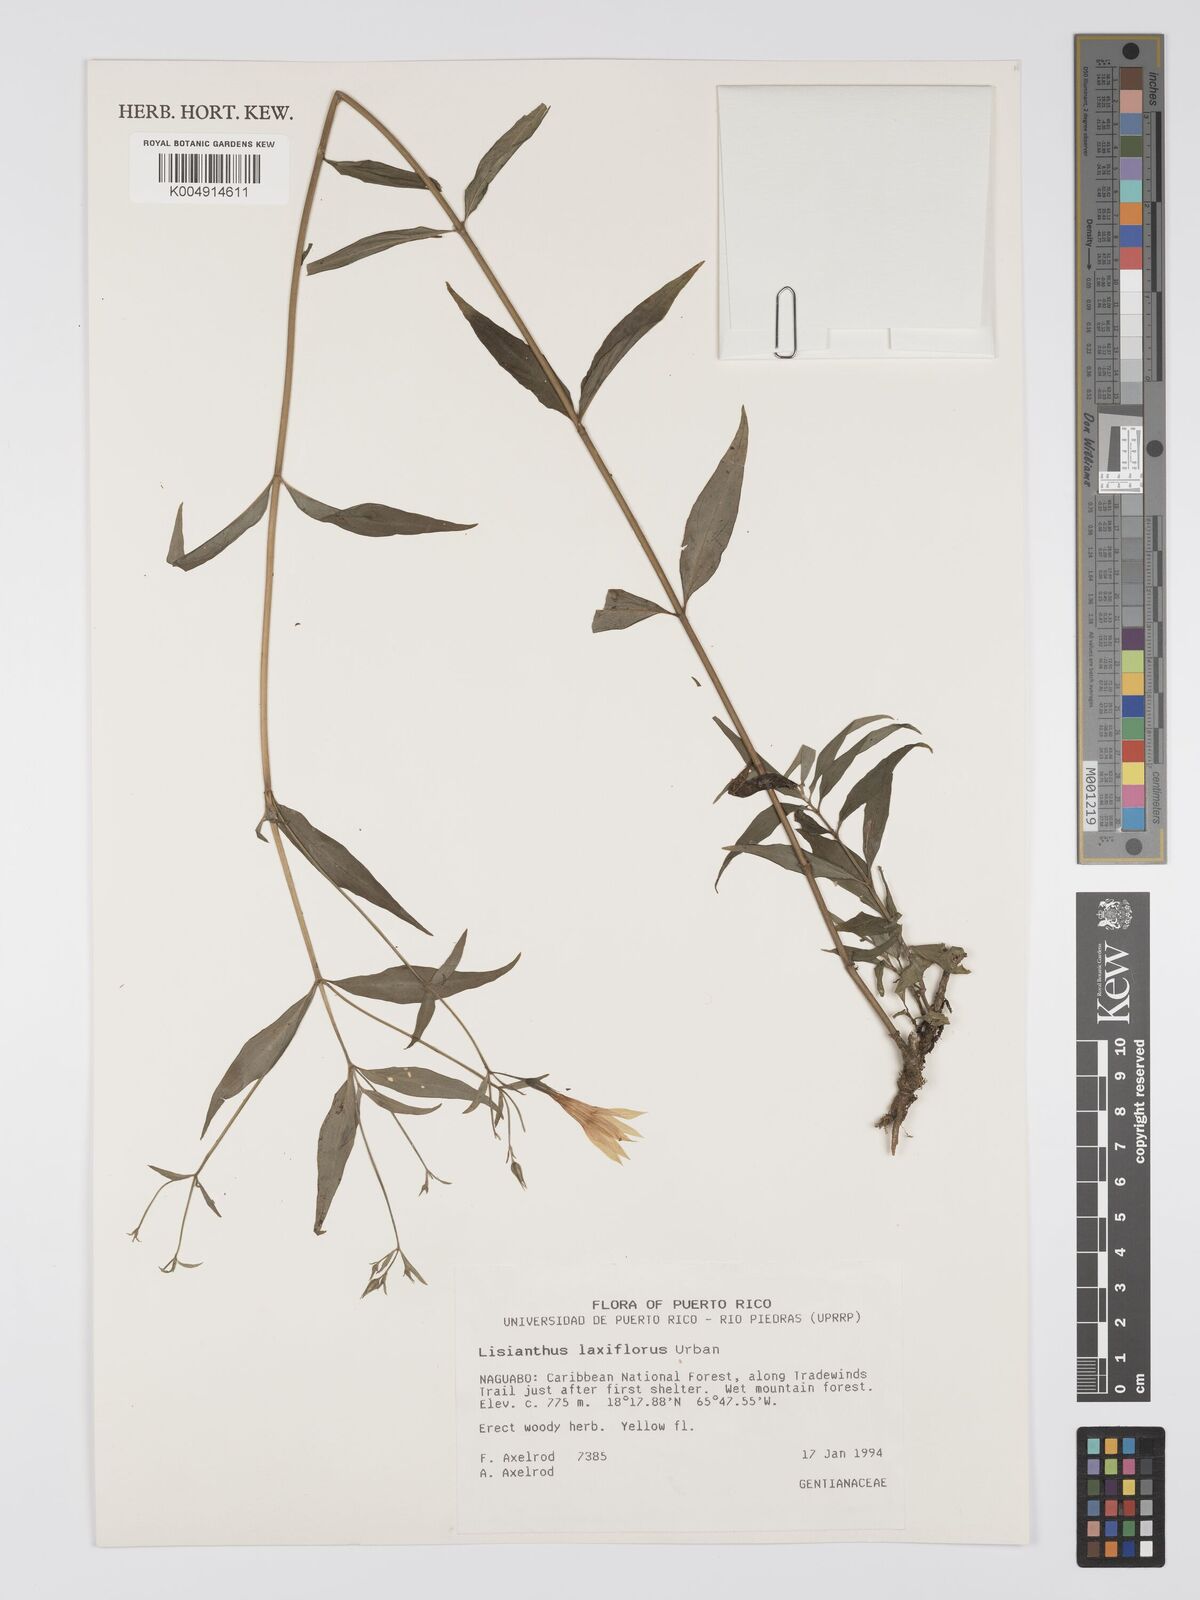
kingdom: Plantae
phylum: Tracheophyta
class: Magnoliopsida
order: Gentianales
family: Gentianaceae
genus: Lisianthius
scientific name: Lisianthius laxiflorus
